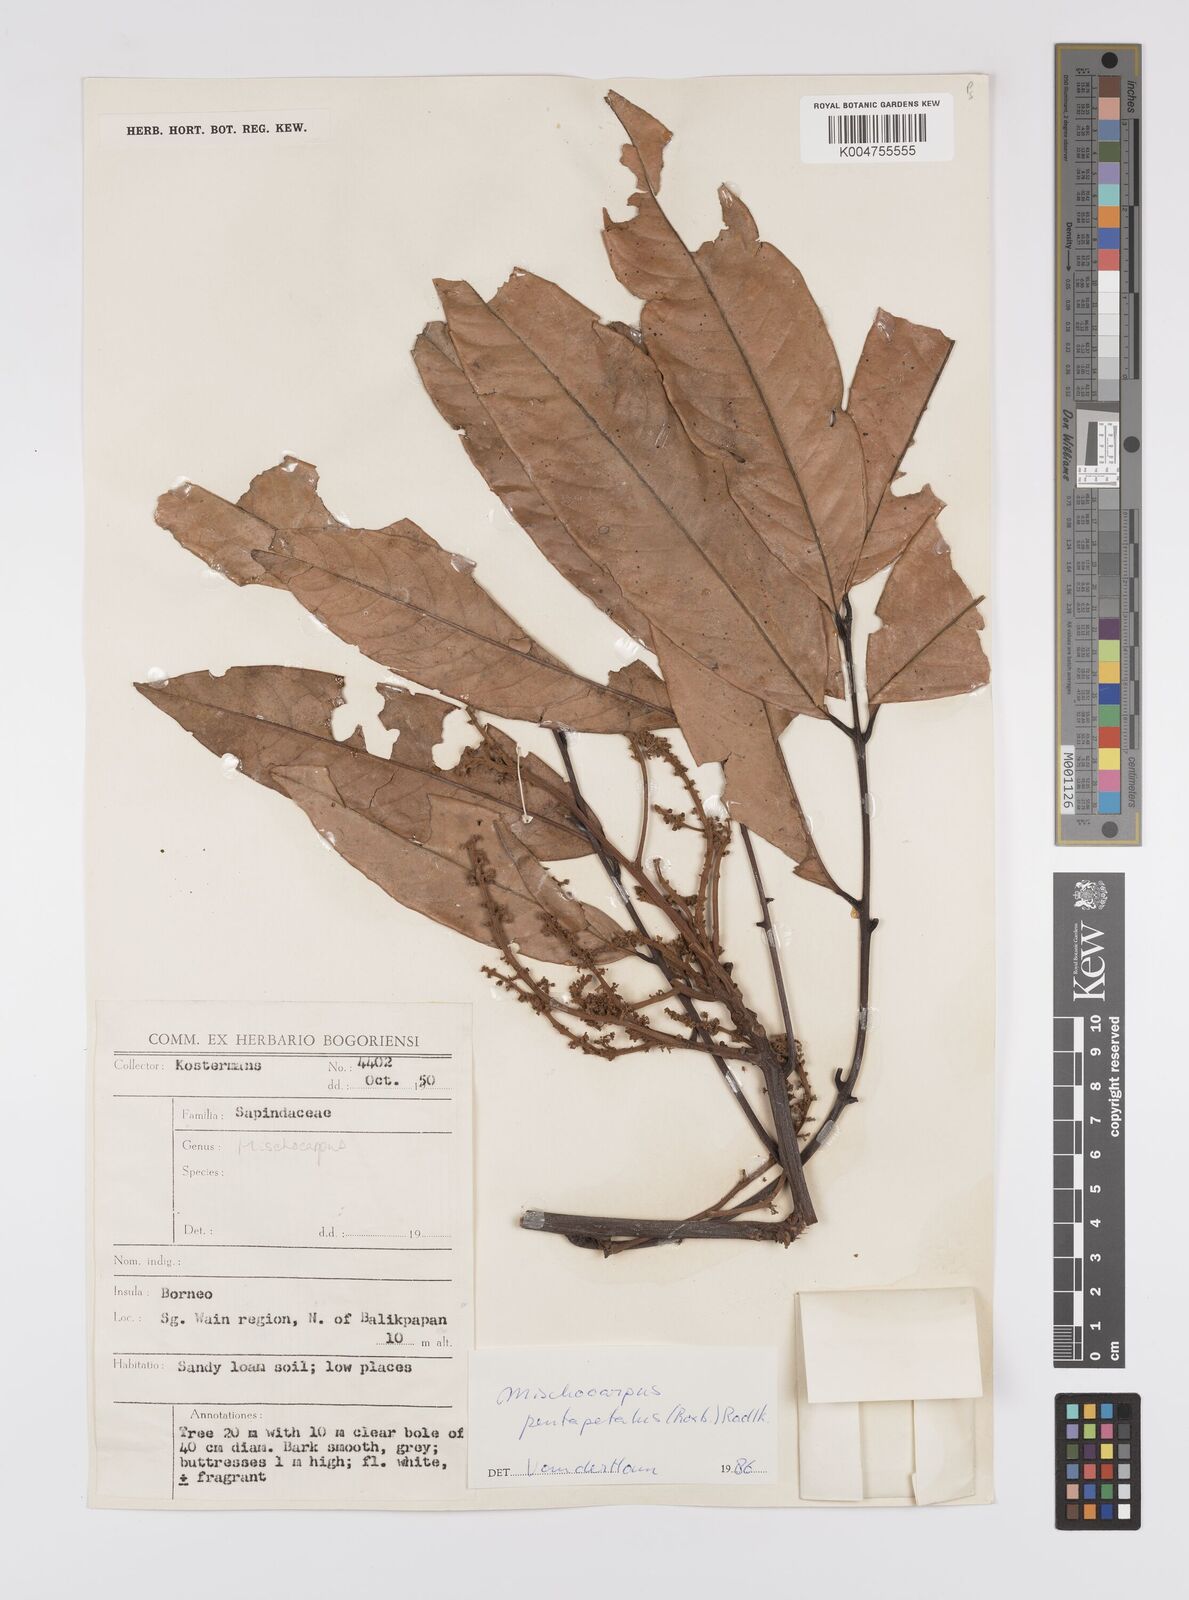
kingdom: Plantae
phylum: Tracheophyta
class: Magnoliopsida
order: Sapindales
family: Sapindaceae
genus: Mischocarpus
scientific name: Mischocarpus pentapetalus
